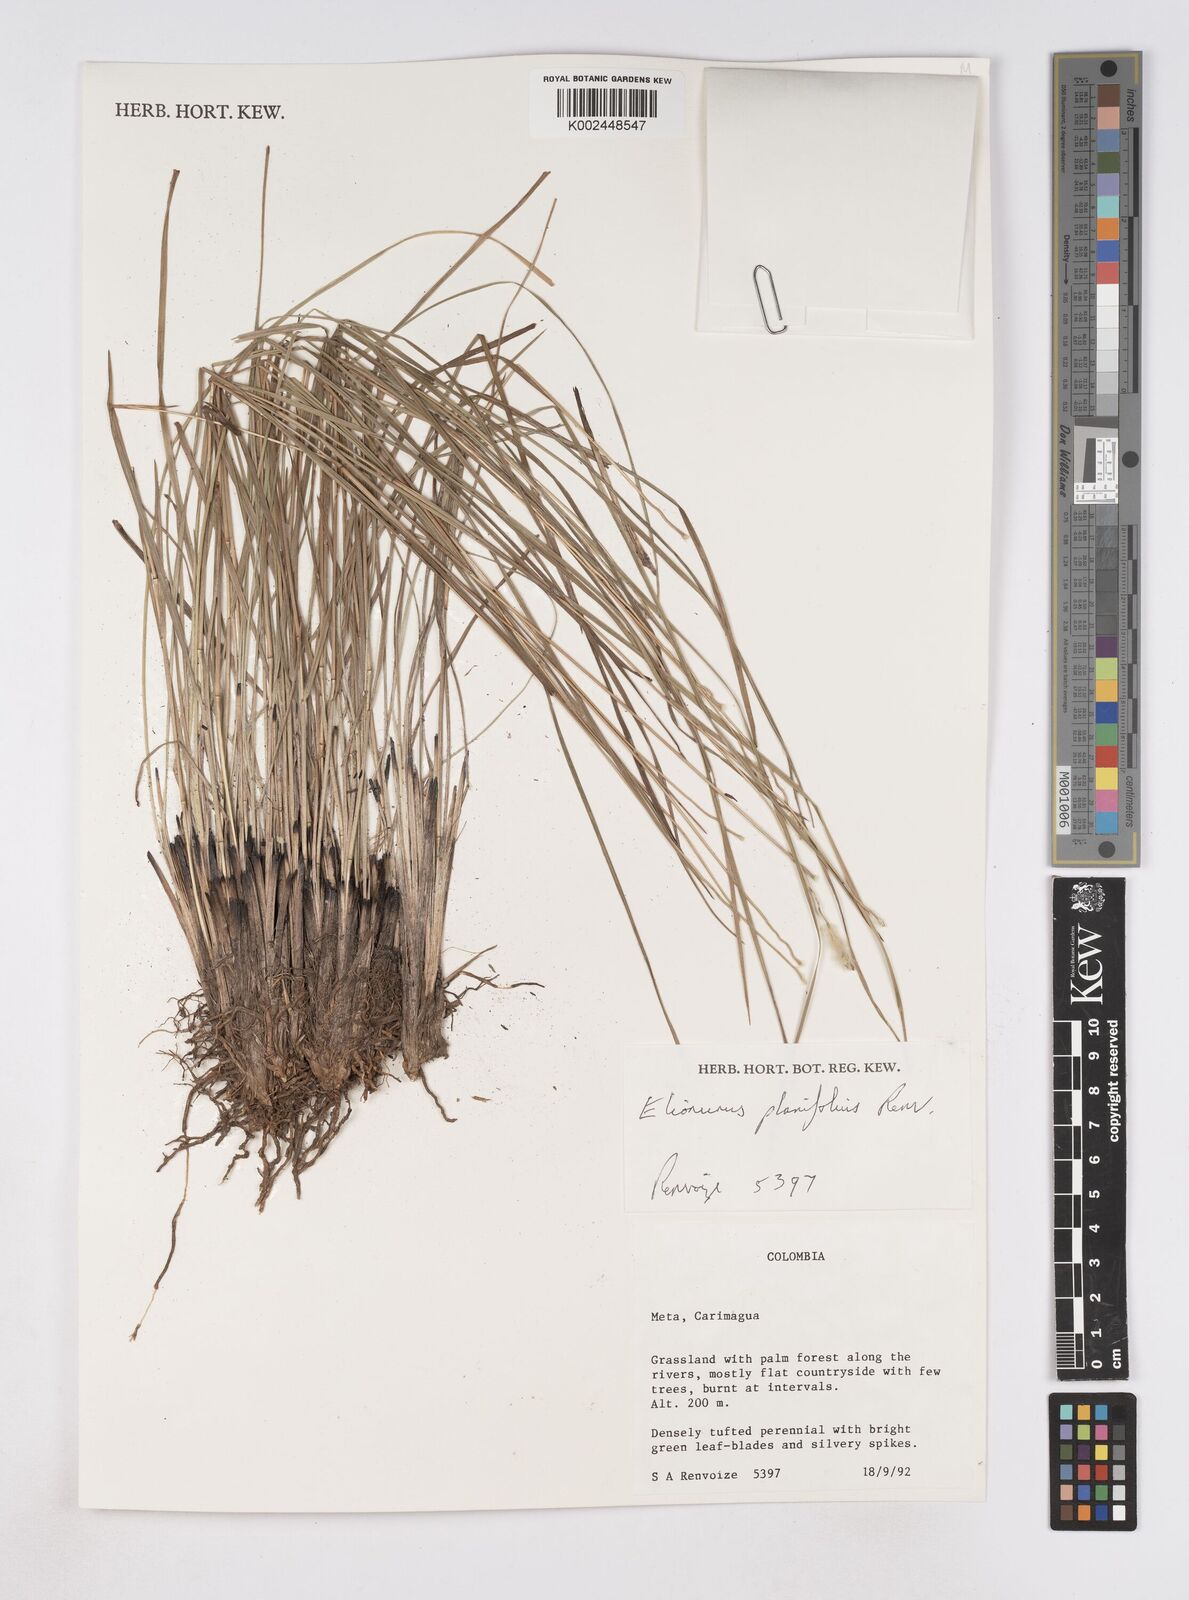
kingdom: Plantae
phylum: Tracheophyta
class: Liliopsida
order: Poales
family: Poaceae
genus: Elionurus
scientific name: Elionurus planifolius
